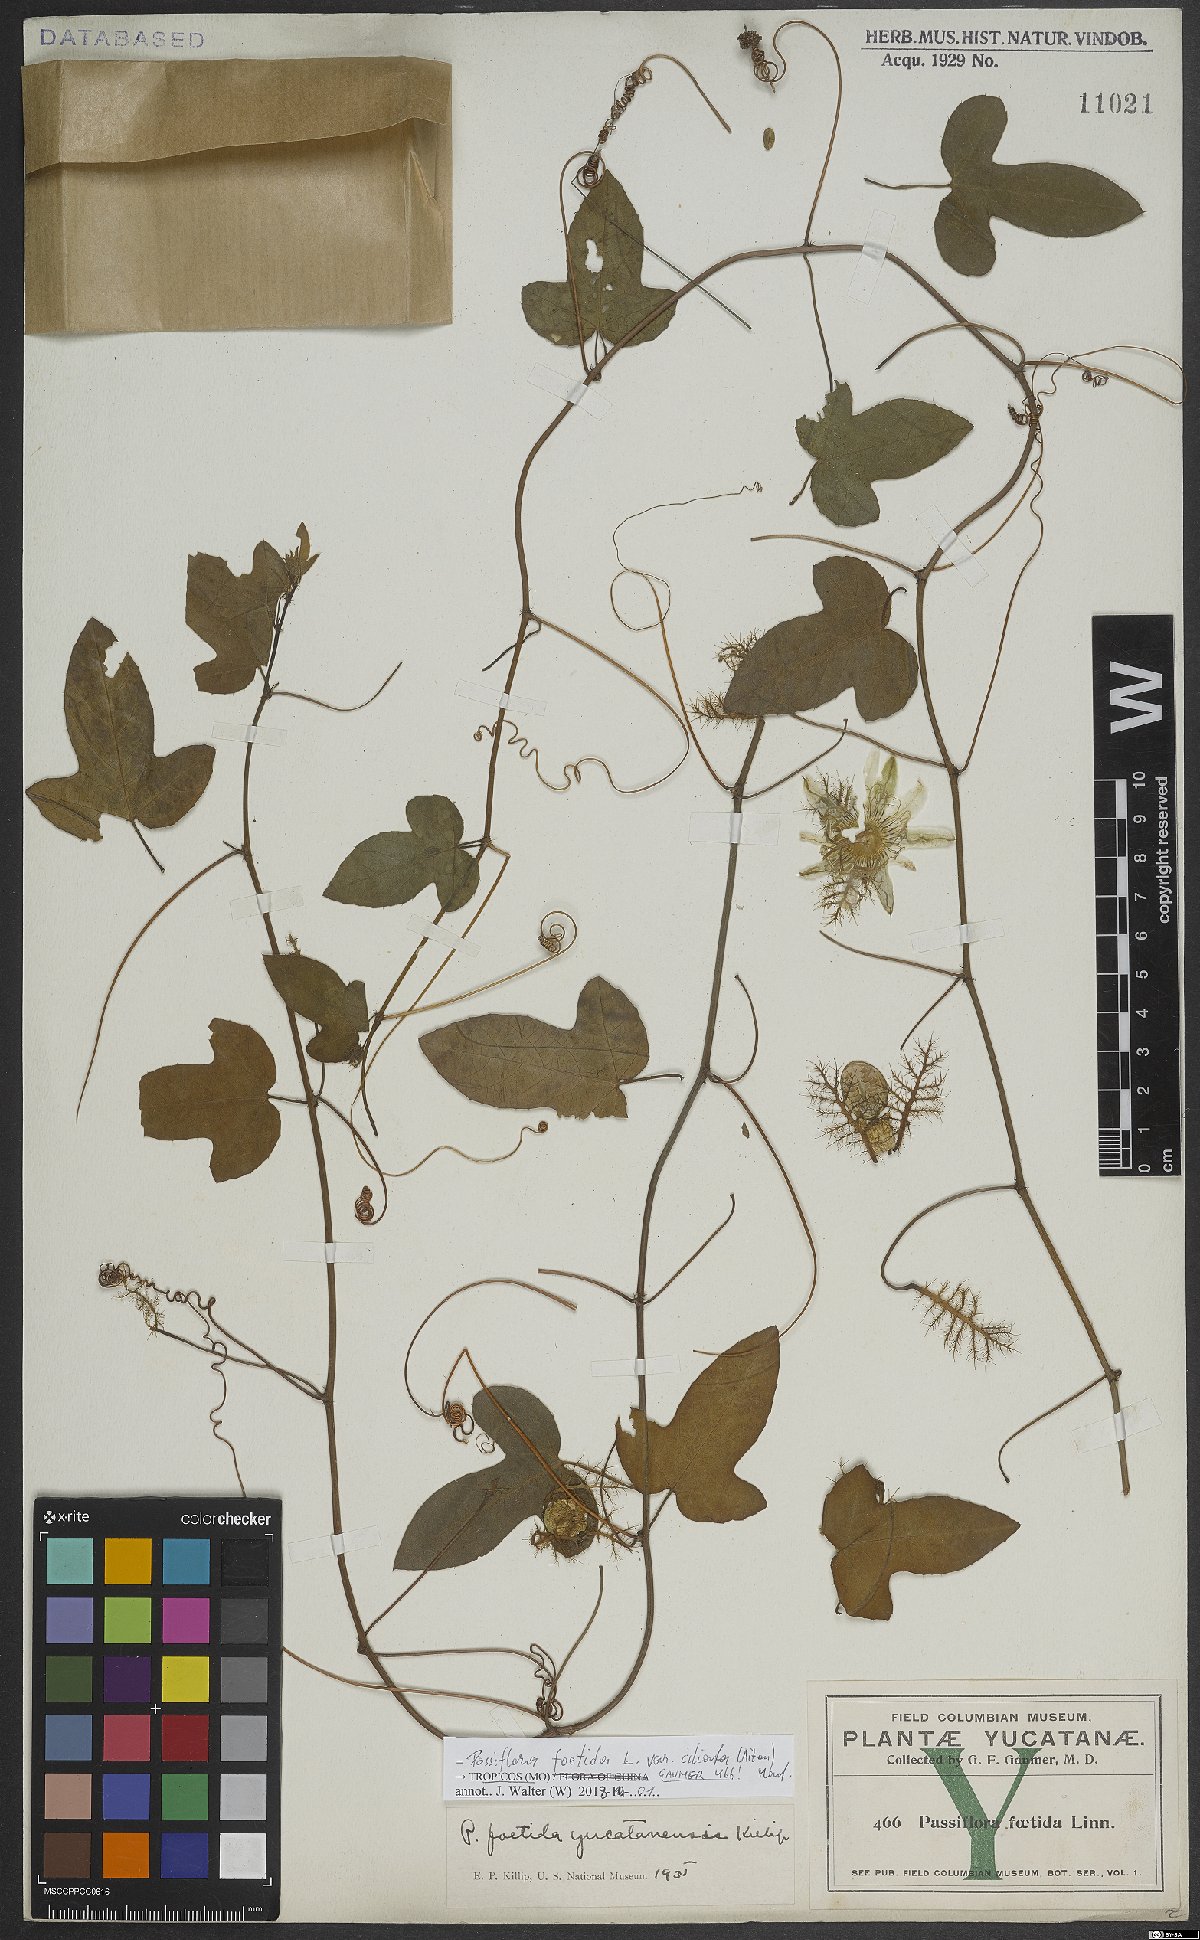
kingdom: Plantae
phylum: Tracheophyta
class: Magnoliopsida
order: Malpighiales
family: Passifloraceae
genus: Passiflora
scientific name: Passiflora ciliata
